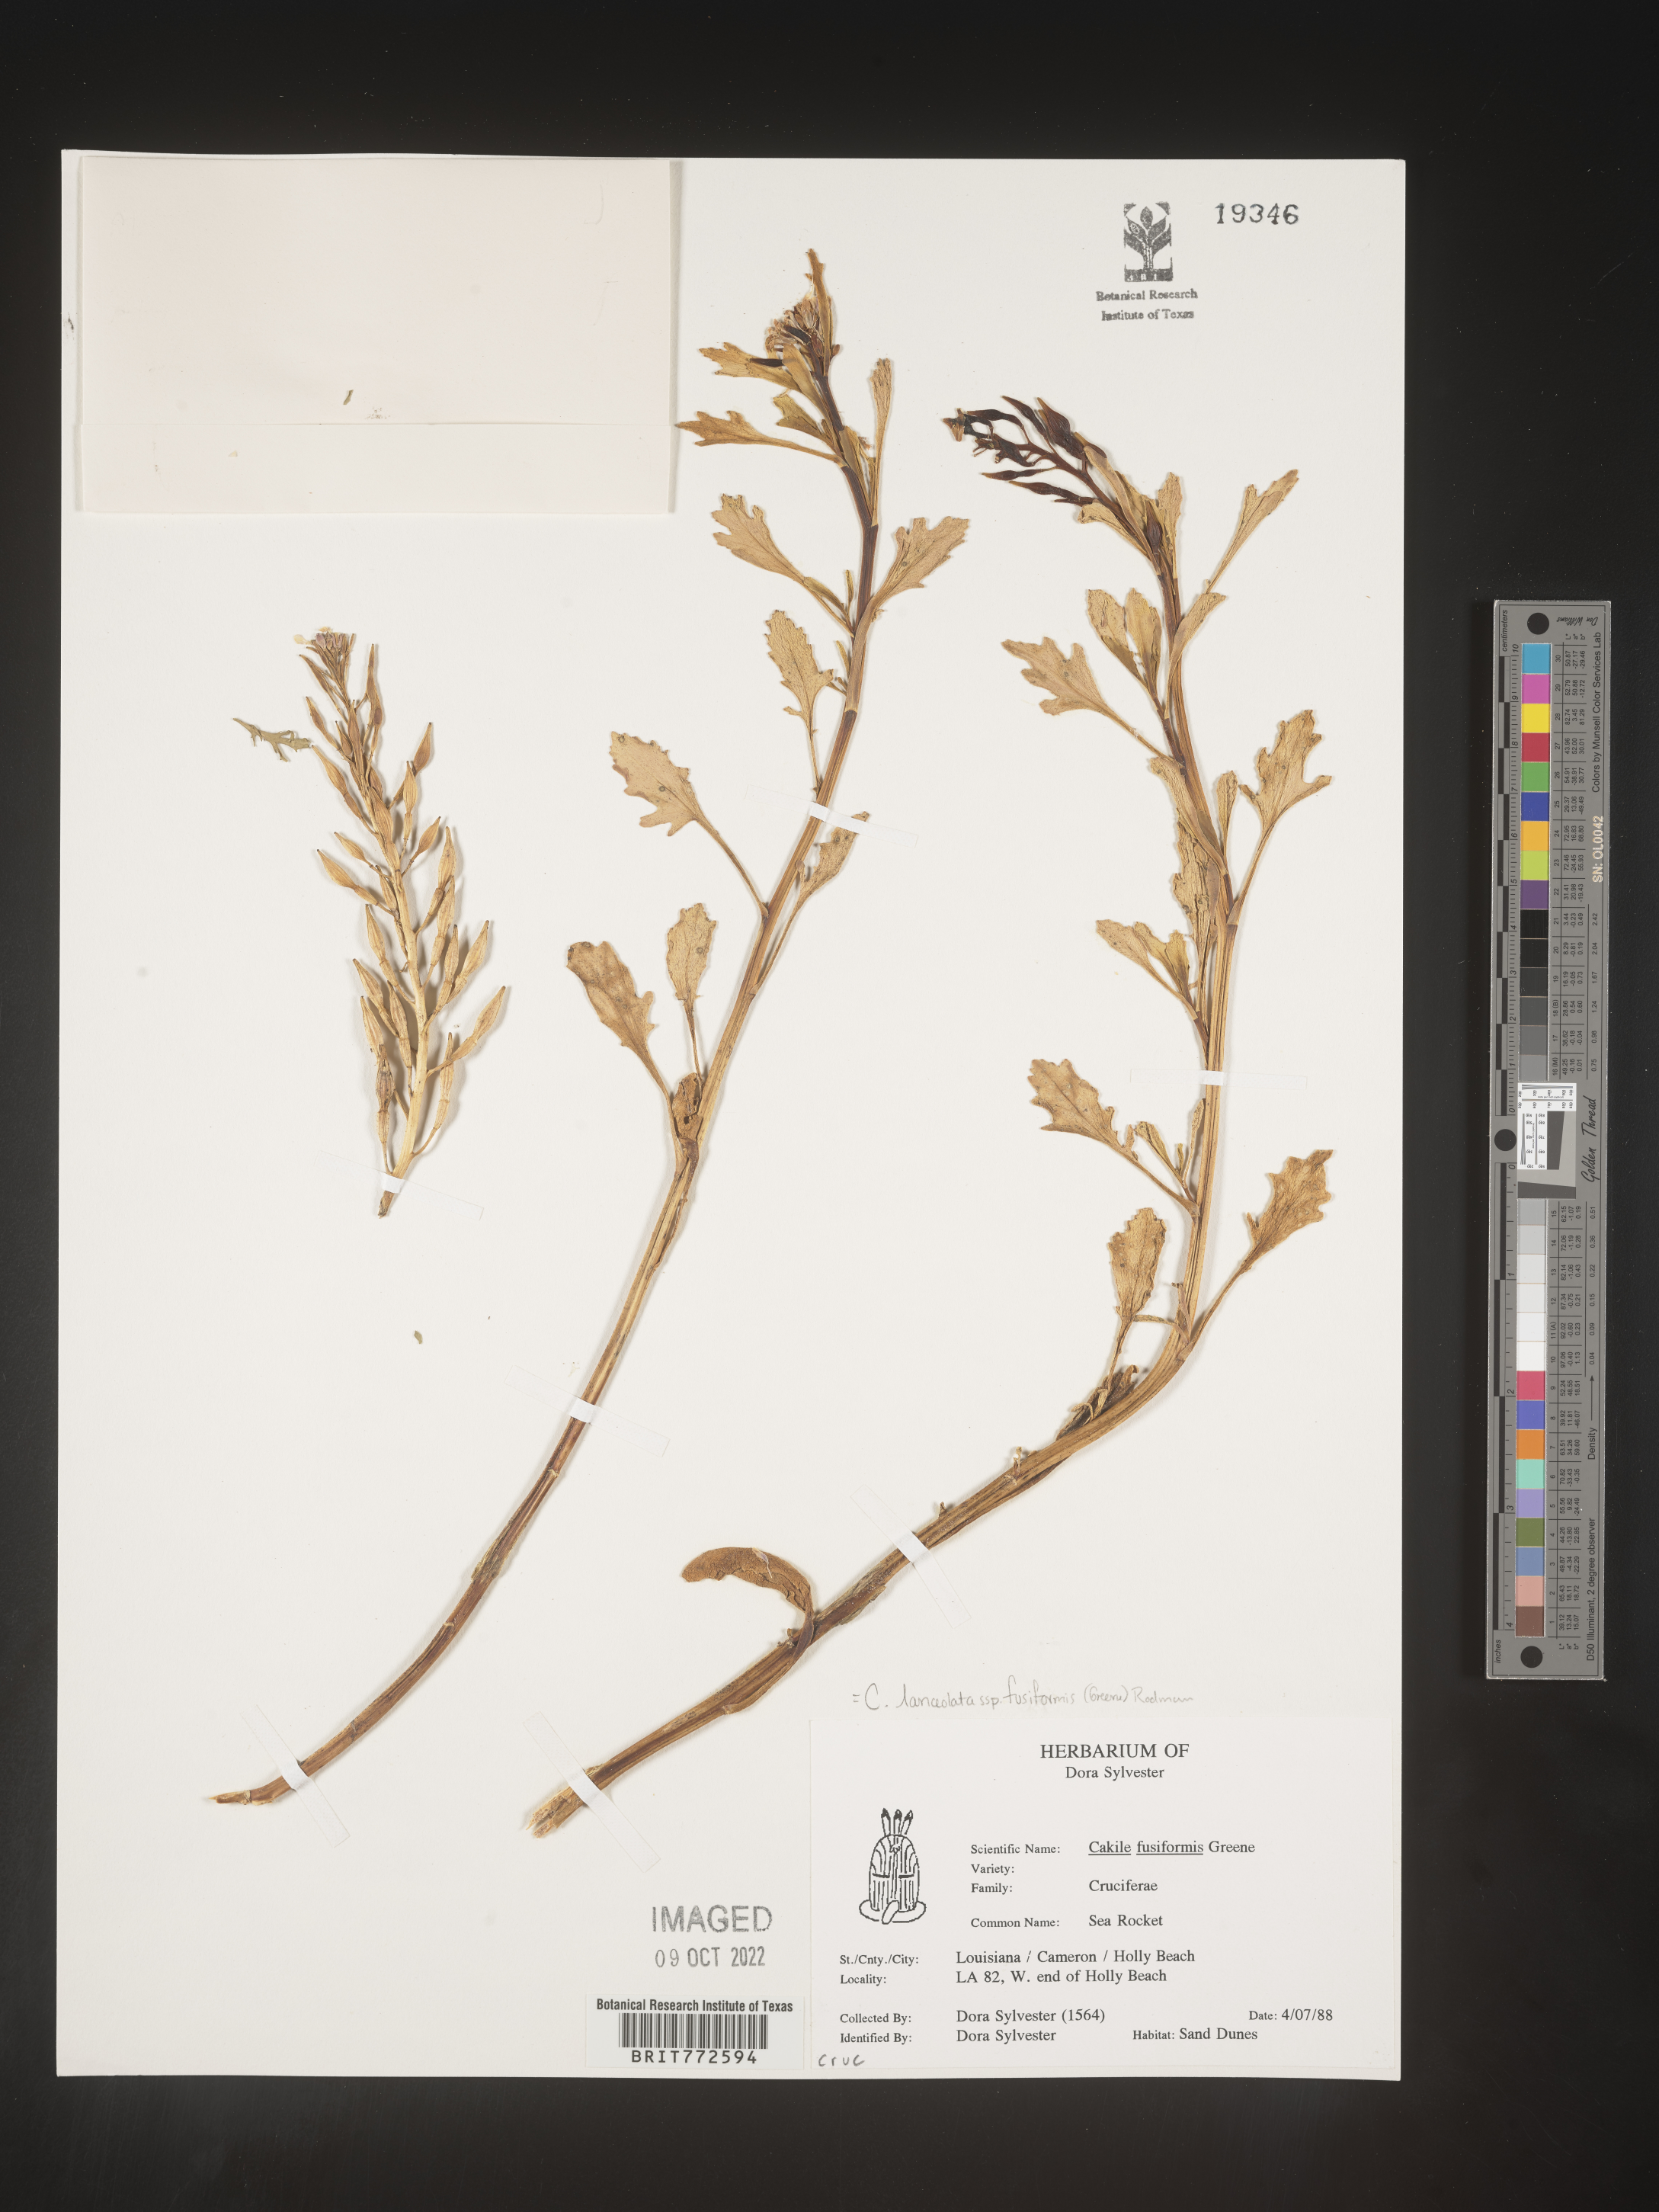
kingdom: Plantae
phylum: Tracheophyta
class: Magnoliopsida
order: Brassicales
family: Brassicaceae
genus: Cakile
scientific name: Cakile lanceolata
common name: Sea rocket
